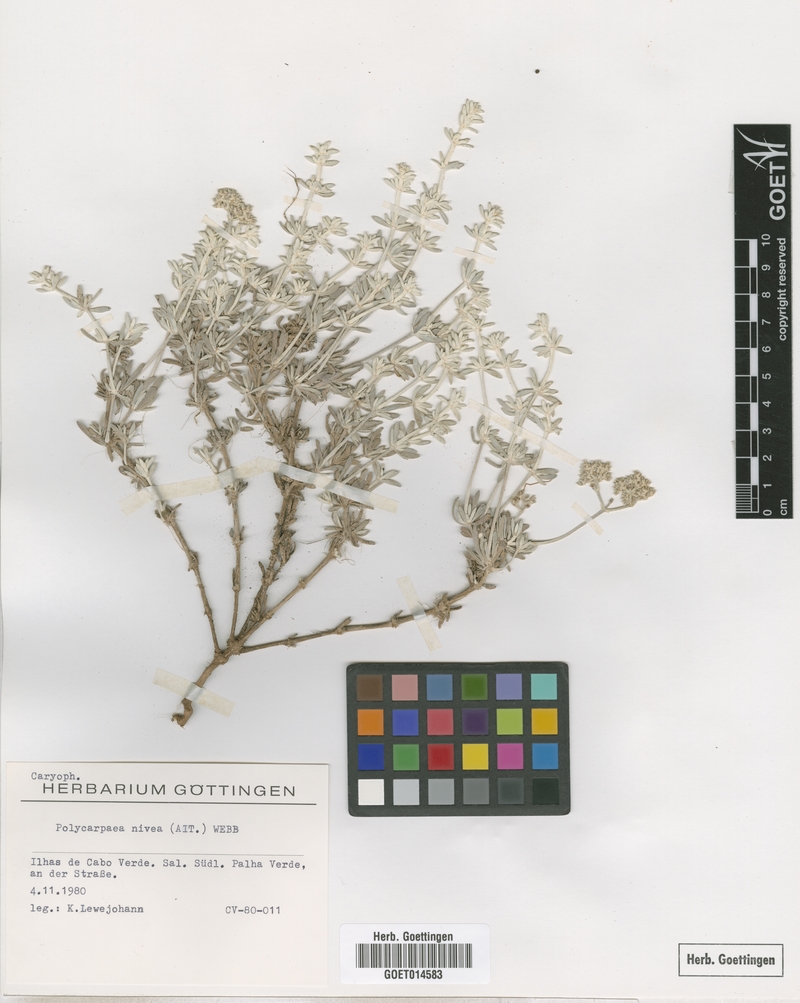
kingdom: Plantae
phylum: Tracheophyta
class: Magnoliopsida
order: Caryophyllales
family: Caryophyllaceae
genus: Polycarpaea
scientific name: Polycarpaea nivea
